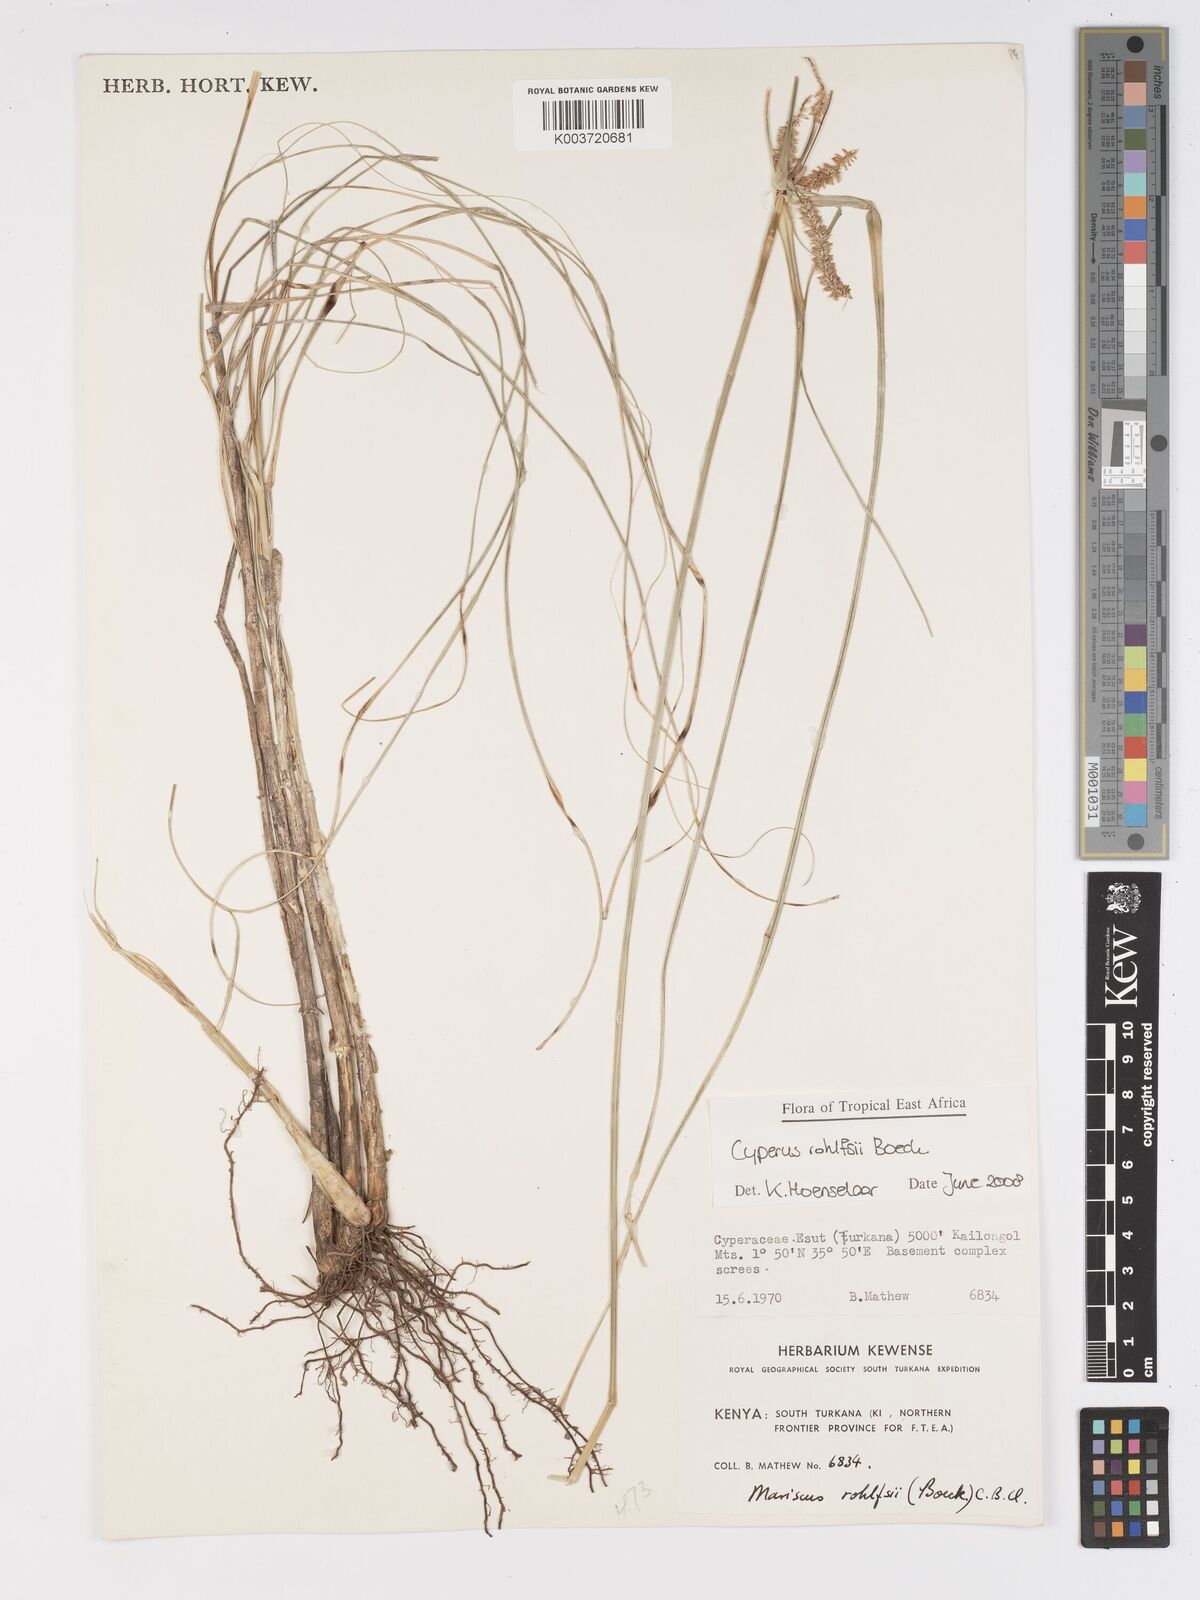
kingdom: Plantae
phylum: Tracheophyta
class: Liliopsida
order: Poales
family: Cyperaceae
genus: Cyperus
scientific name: Cyperus rohlfsii
